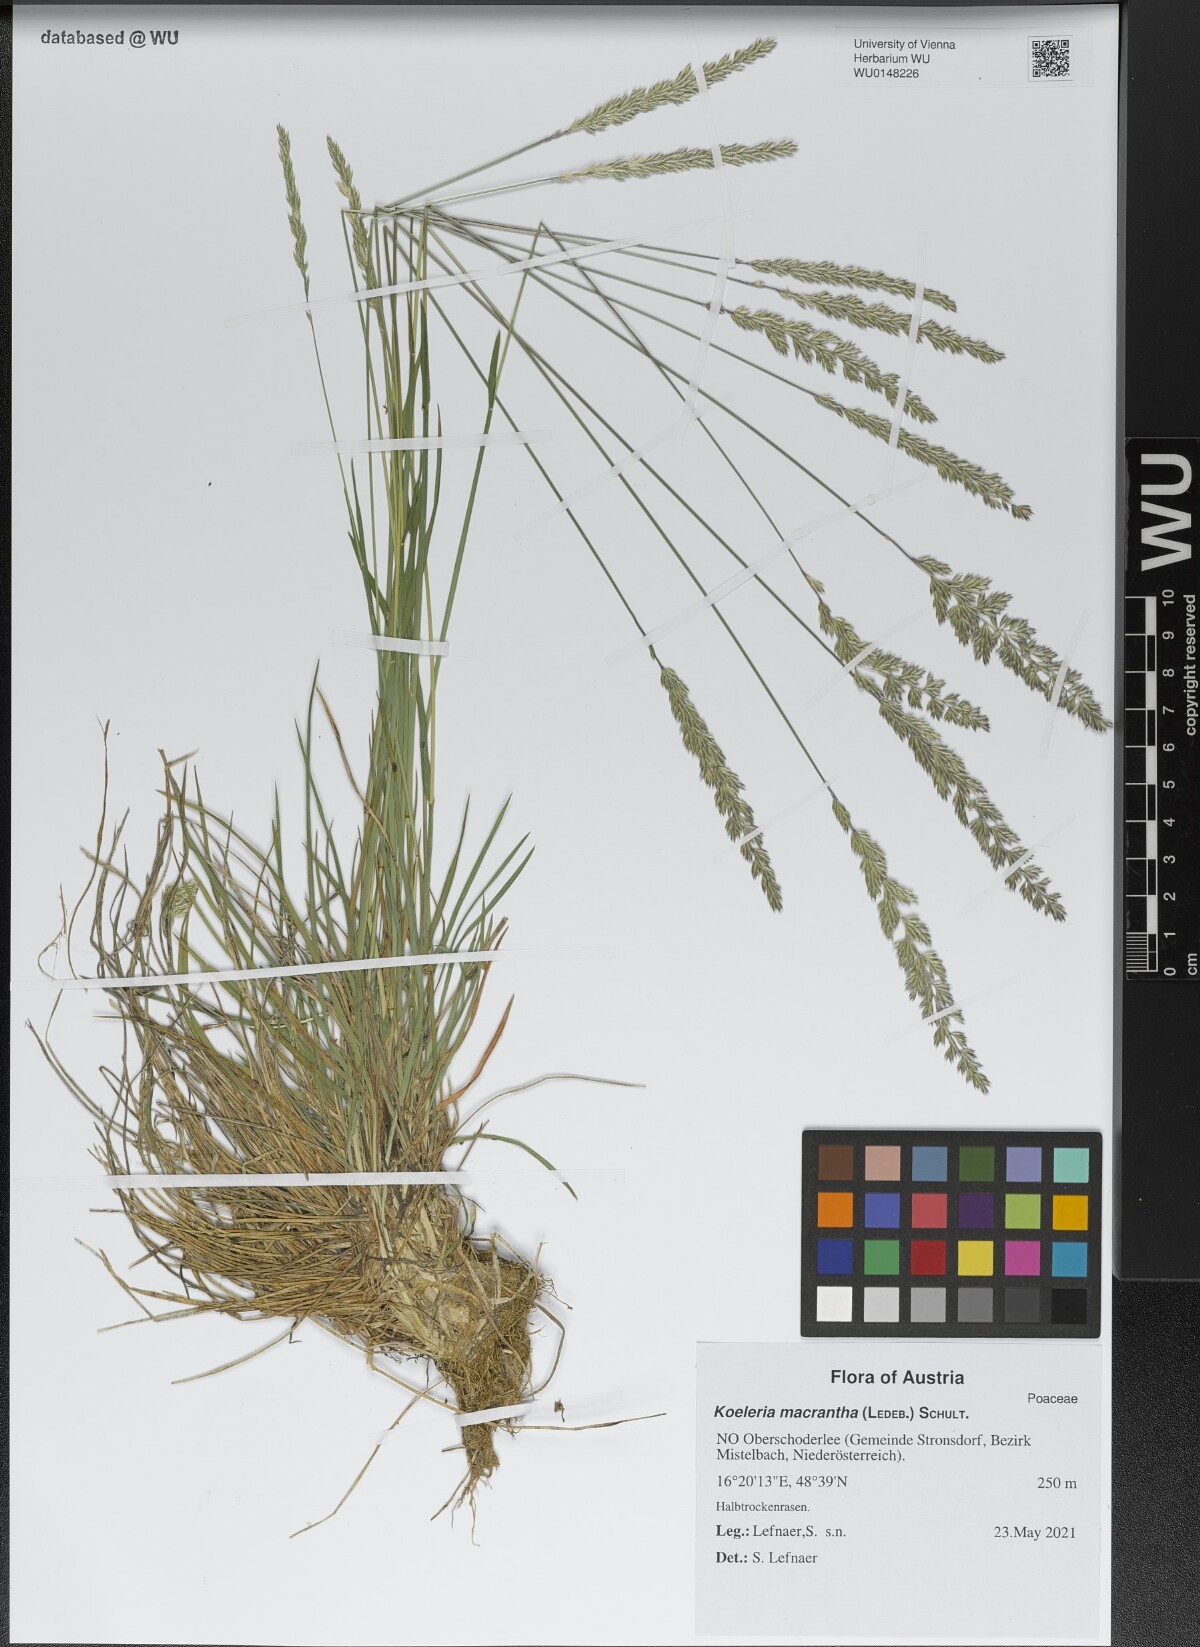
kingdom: Plantae
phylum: Tracheophyta
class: Liliopsida
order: Poales
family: Poaceae
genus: Koeleria
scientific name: Koeleria macrantha
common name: Crested hair-grass
